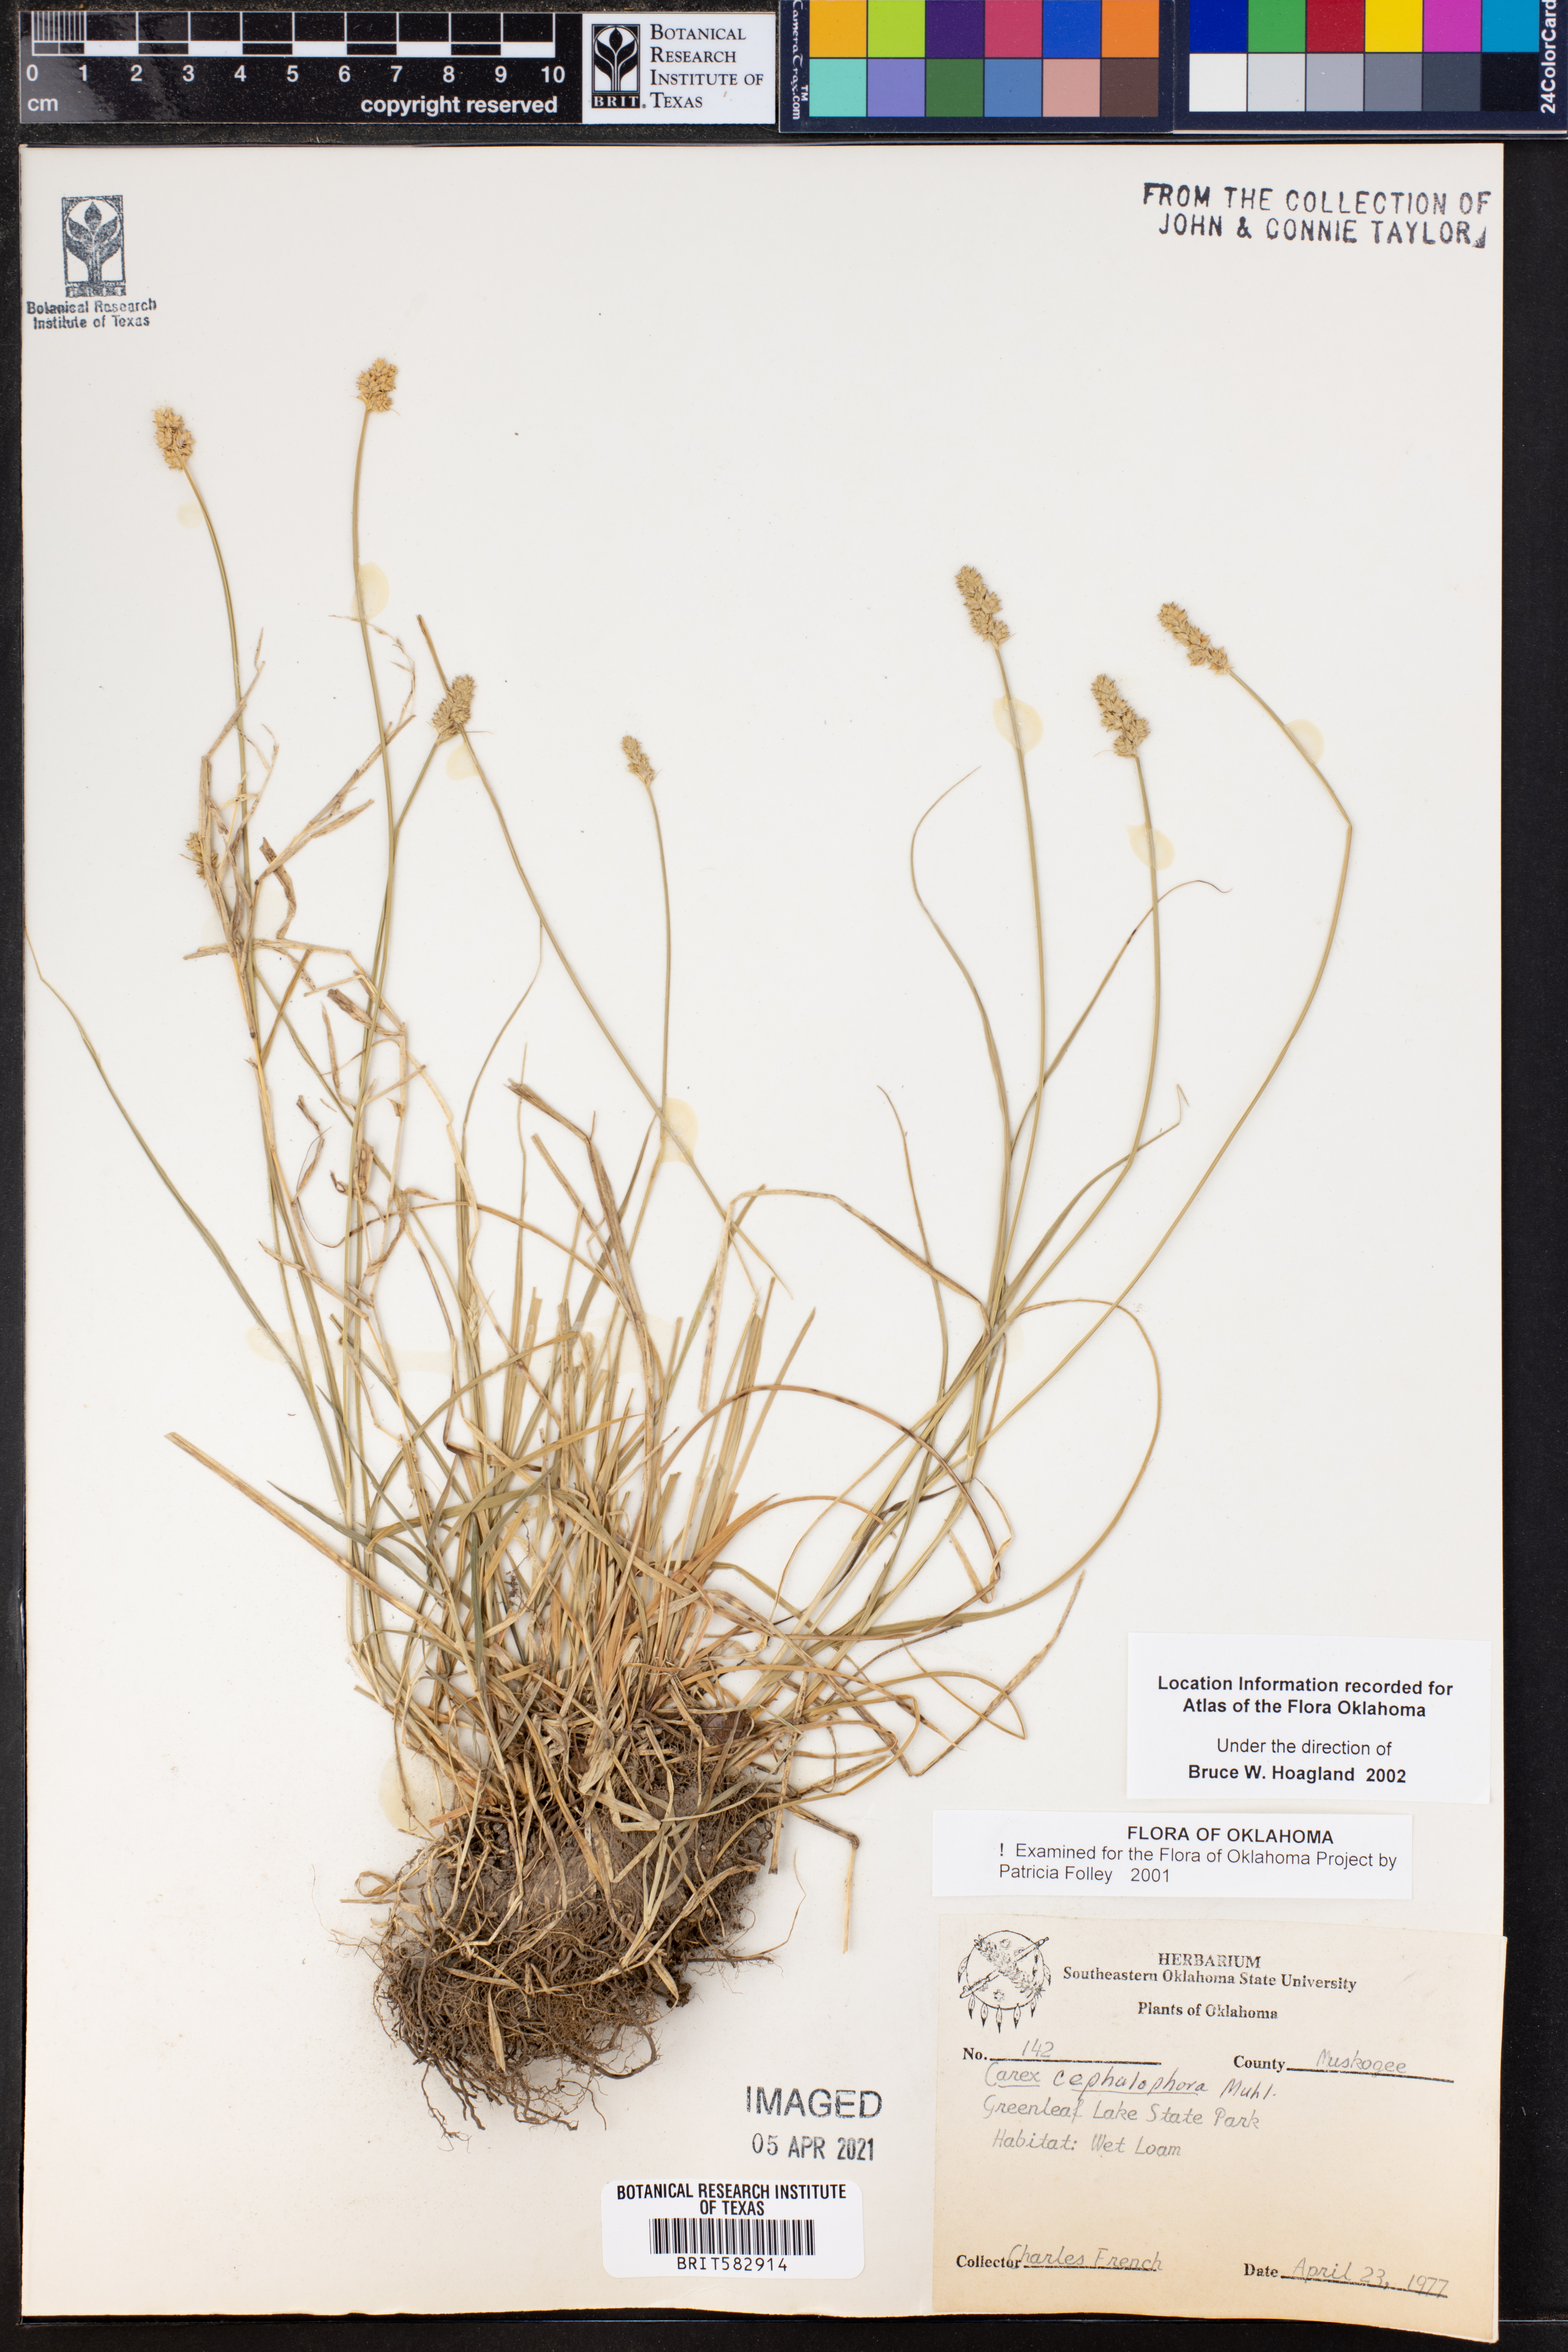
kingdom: Plantae
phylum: Tracheophyta
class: Liliopsida
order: Poales
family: Cyperaceae
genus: Carex
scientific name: Carex cephalophora
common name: Oval-headed sedge
